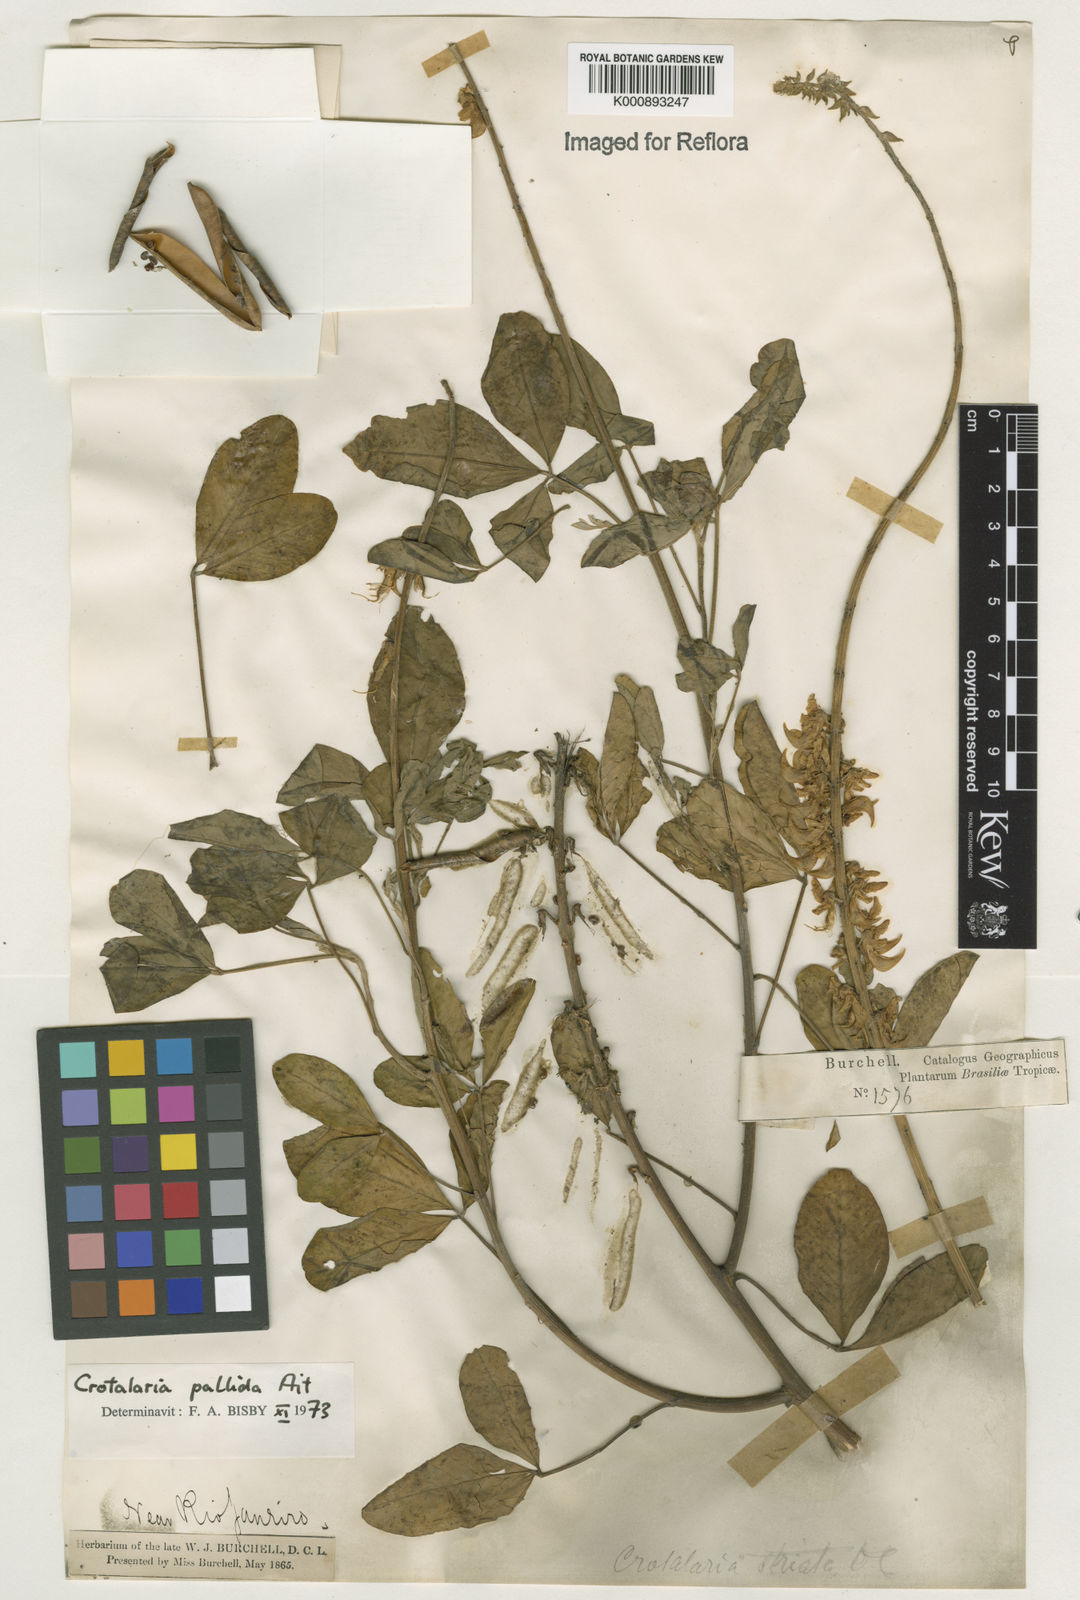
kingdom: Plantae
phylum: Tracheophyta
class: Magnoliopsida
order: Fabales
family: Fabaceae
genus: Crotalaria
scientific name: Crotalaria pallida
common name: Smooth rattlebox
